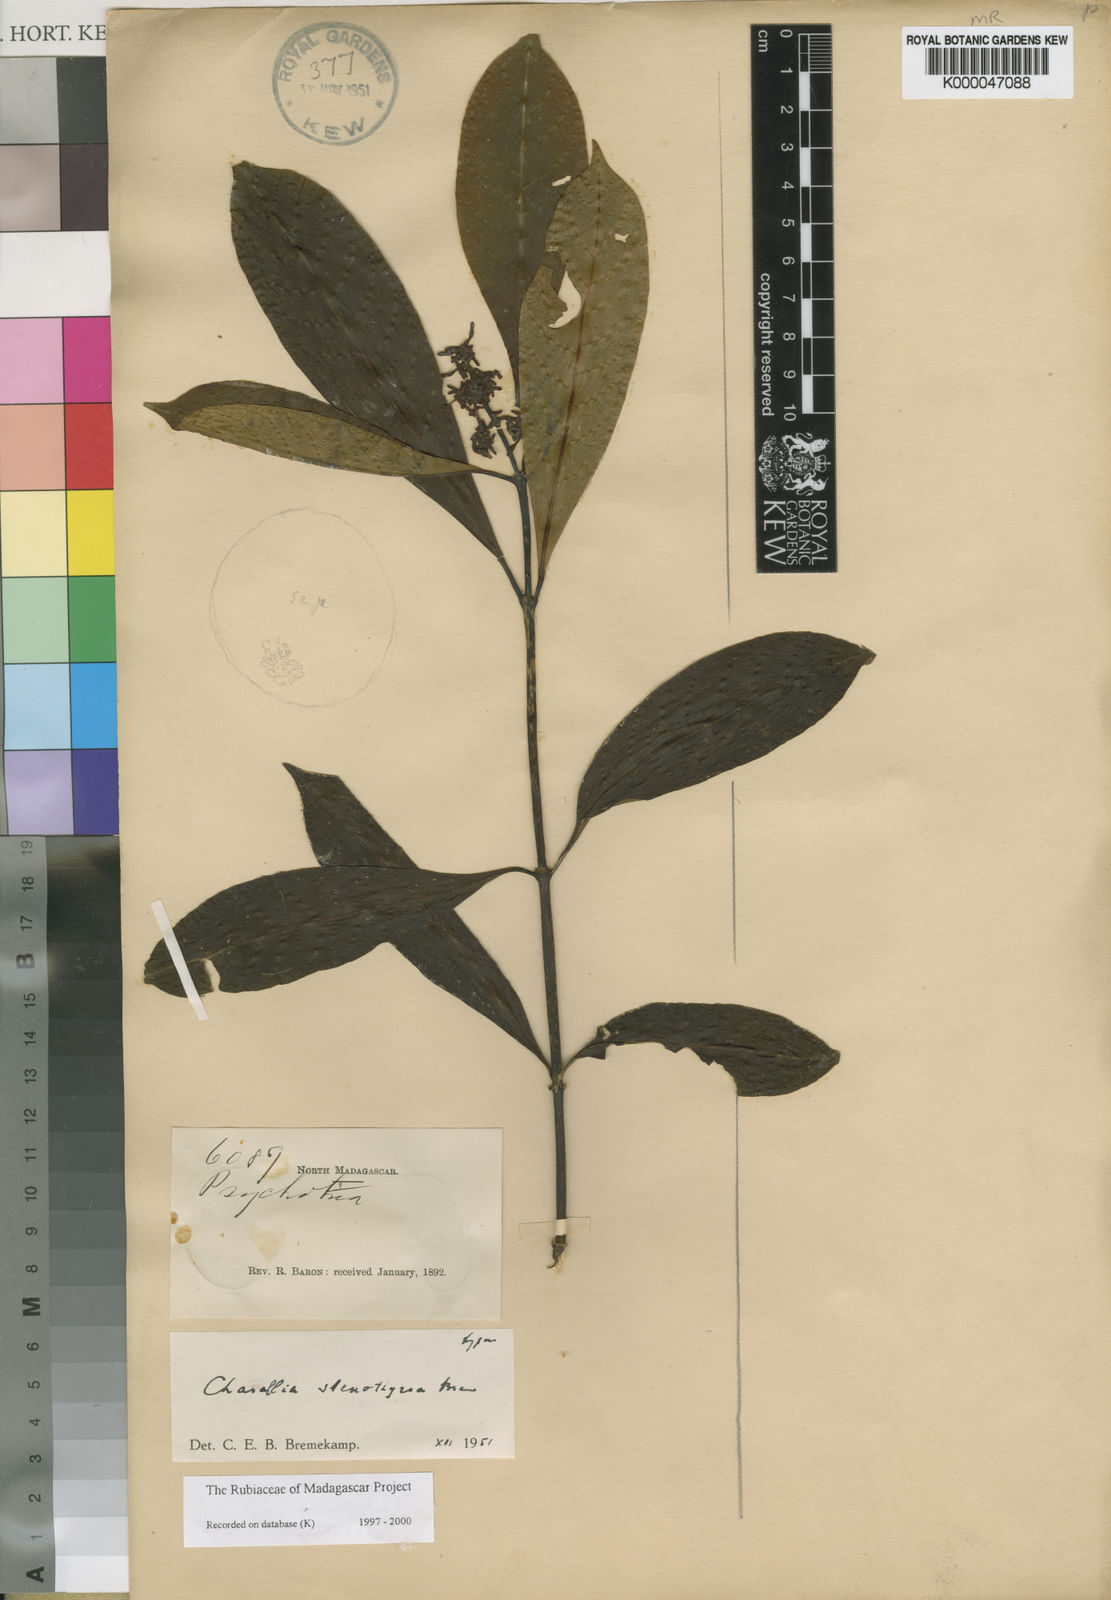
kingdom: Plantae
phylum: Tracheophyta
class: Magnoliopsida
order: Gentianales
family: Rubiaceae
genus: Chassalia
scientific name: Chassalia stenothyrsa
